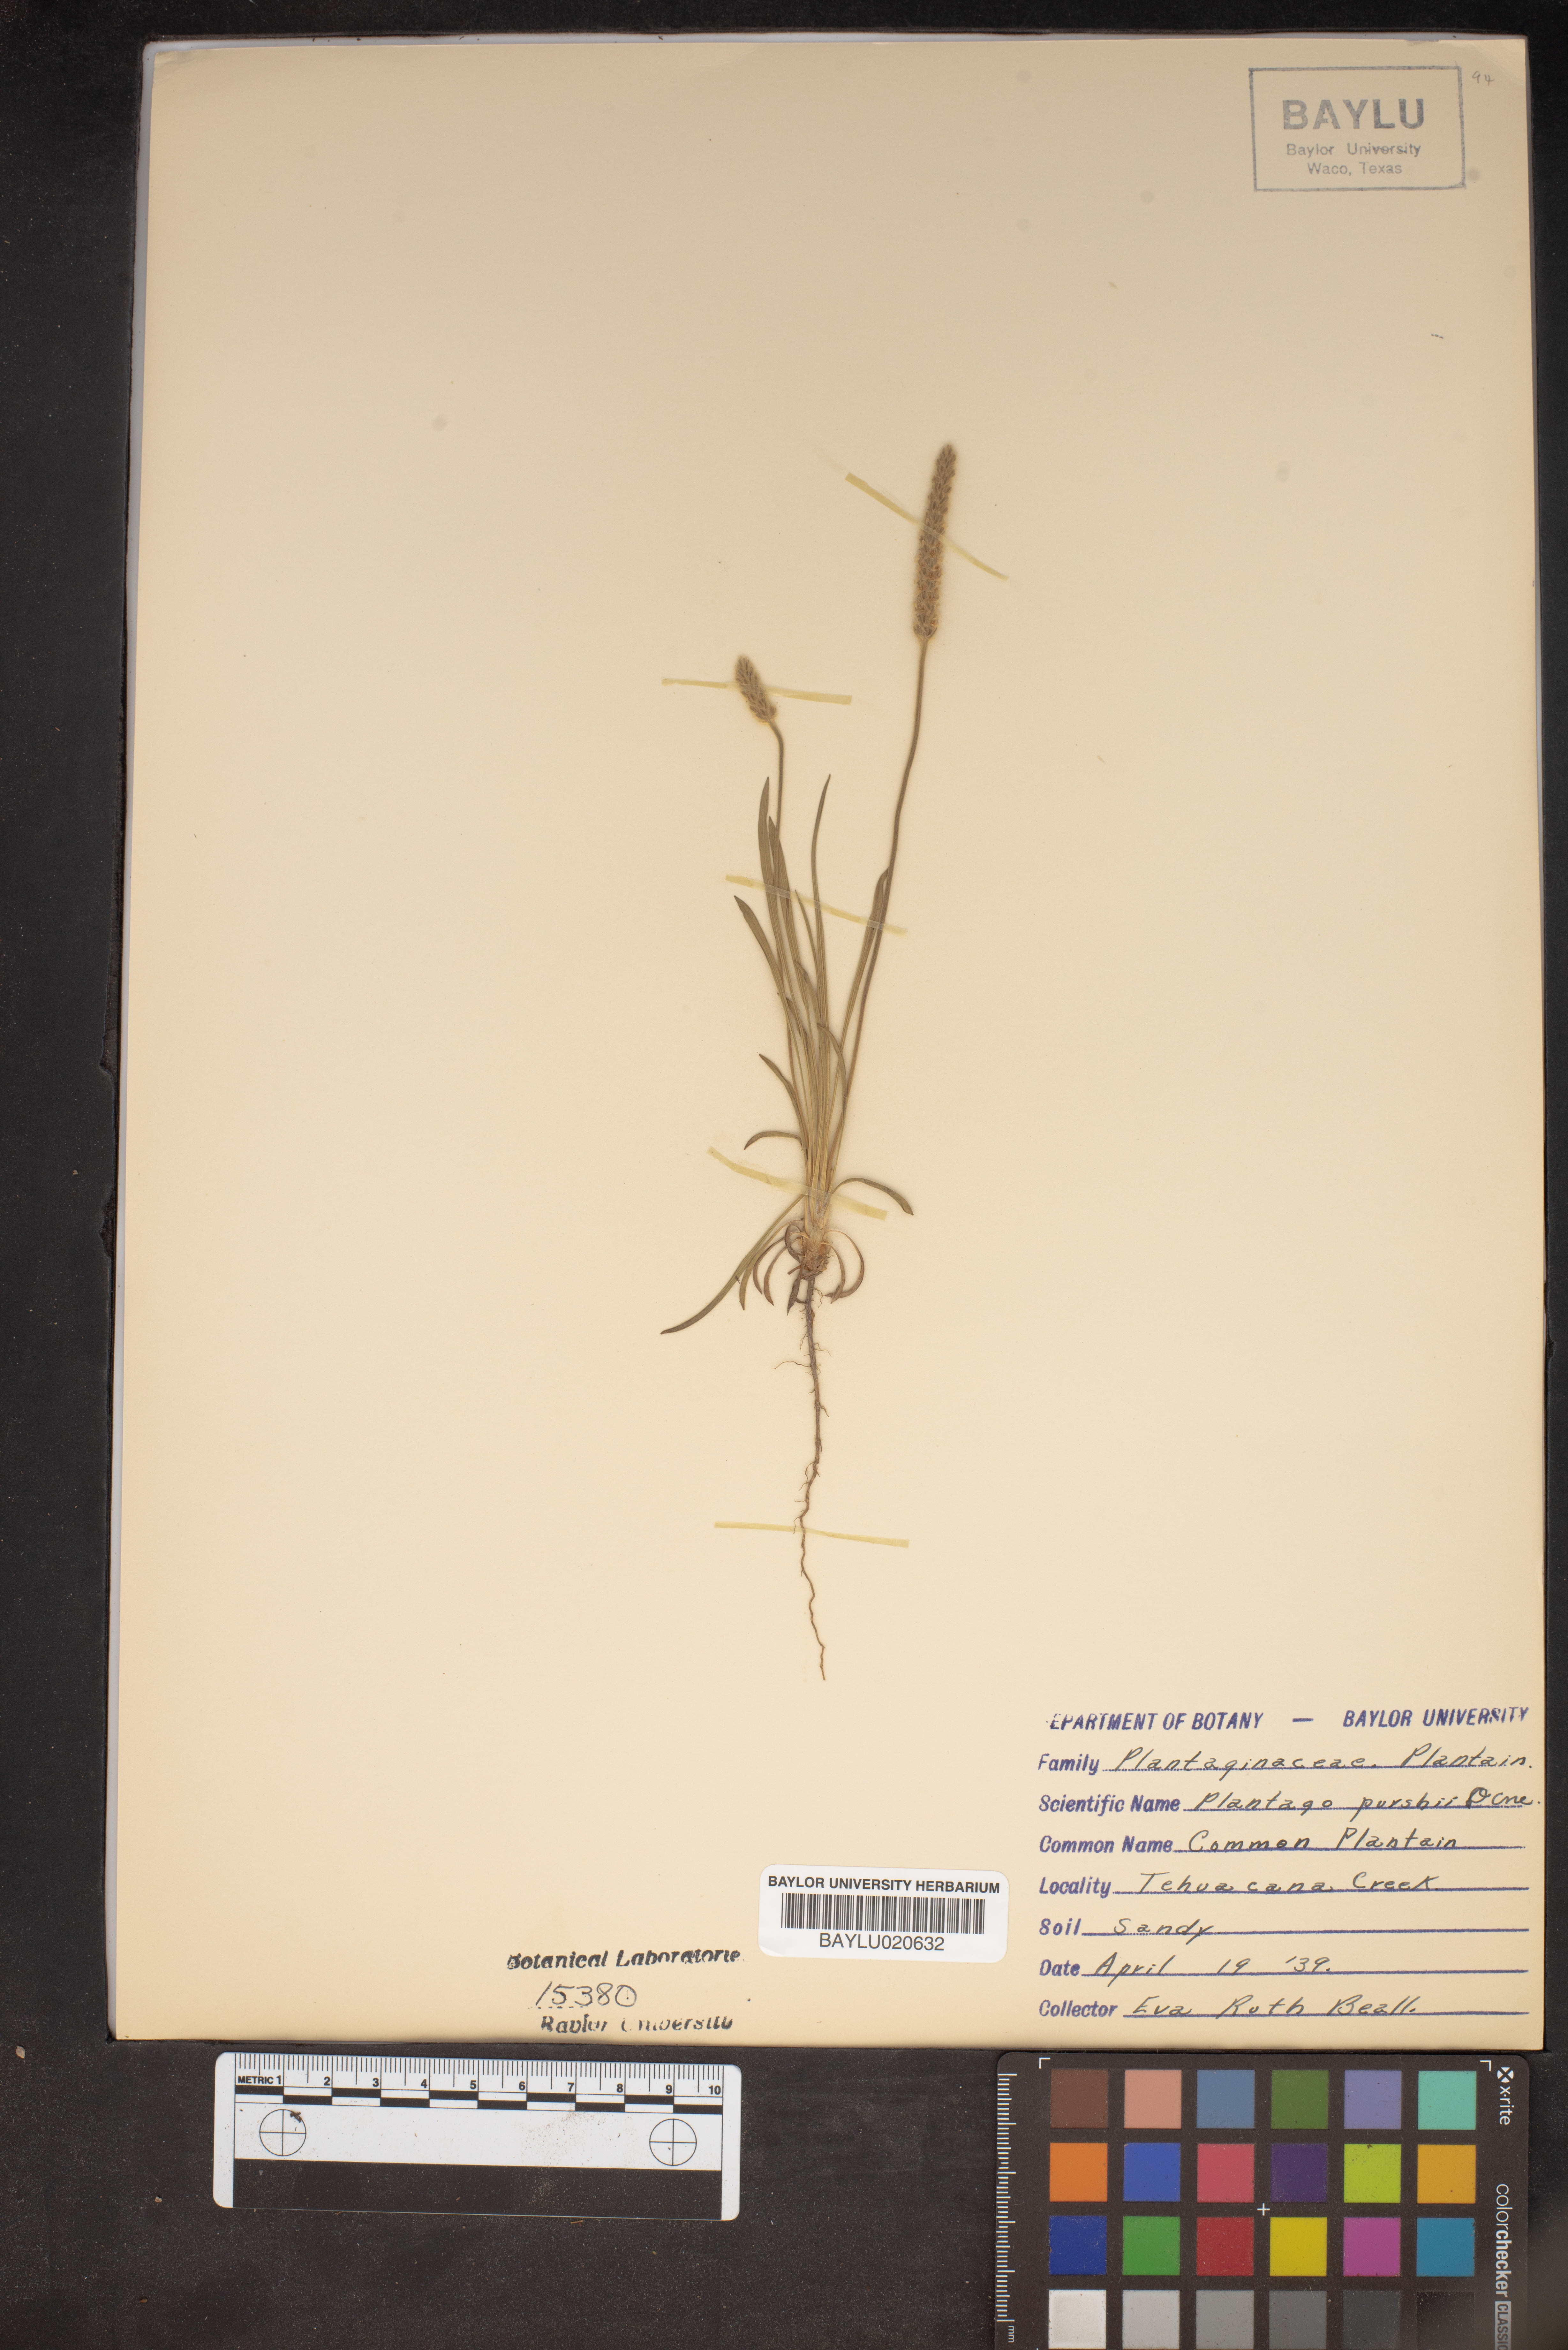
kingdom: Plantae
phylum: Tracheophyta
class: Magnoliopsida
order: Lamiales
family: Plantaginaceae
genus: Plantago
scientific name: Plantago patagonica
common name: Patagonia indian-wheat
